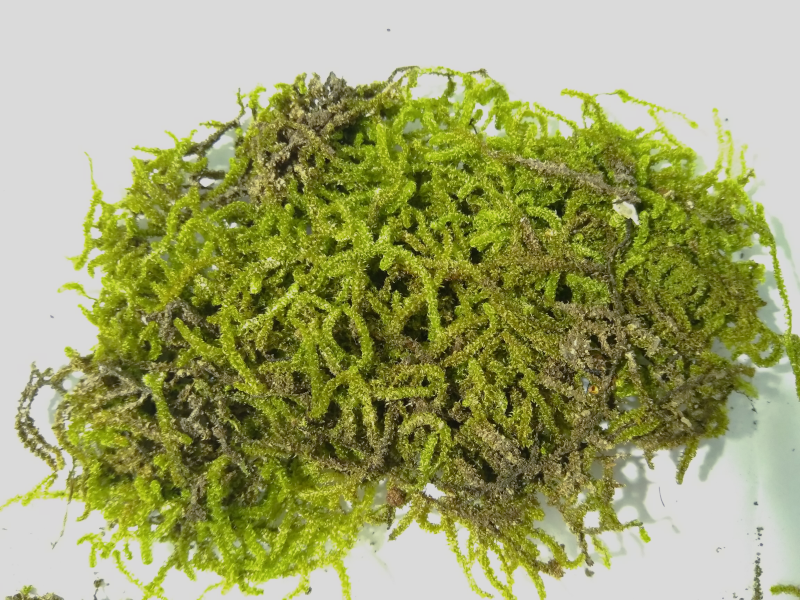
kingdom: Plantae
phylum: Bryophyta
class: Bryopsida
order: Hypnales
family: Meteoriaceae
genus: Meteoriopsis
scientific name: Meteoriopsis
